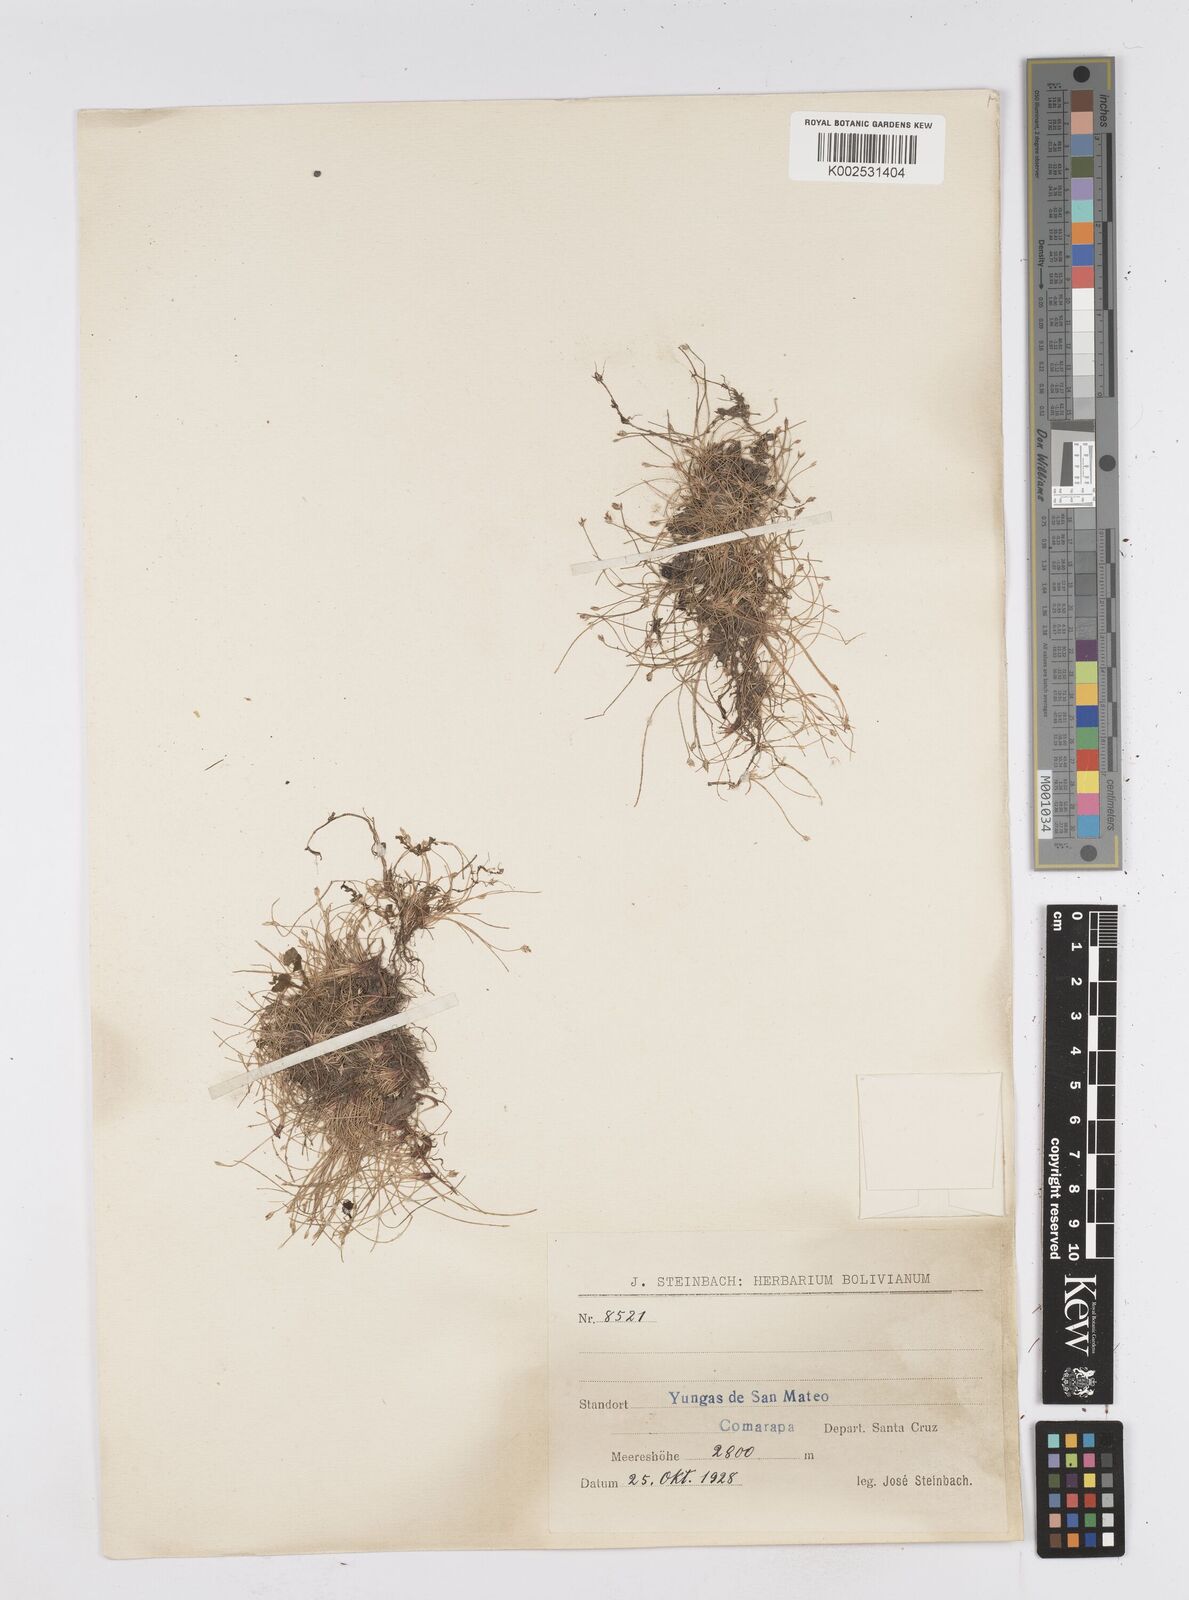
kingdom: Plantae
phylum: Tracheophyta
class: Liliopsida
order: Poales
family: Cyperaceae
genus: Eleocharis
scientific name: Eleocharis
